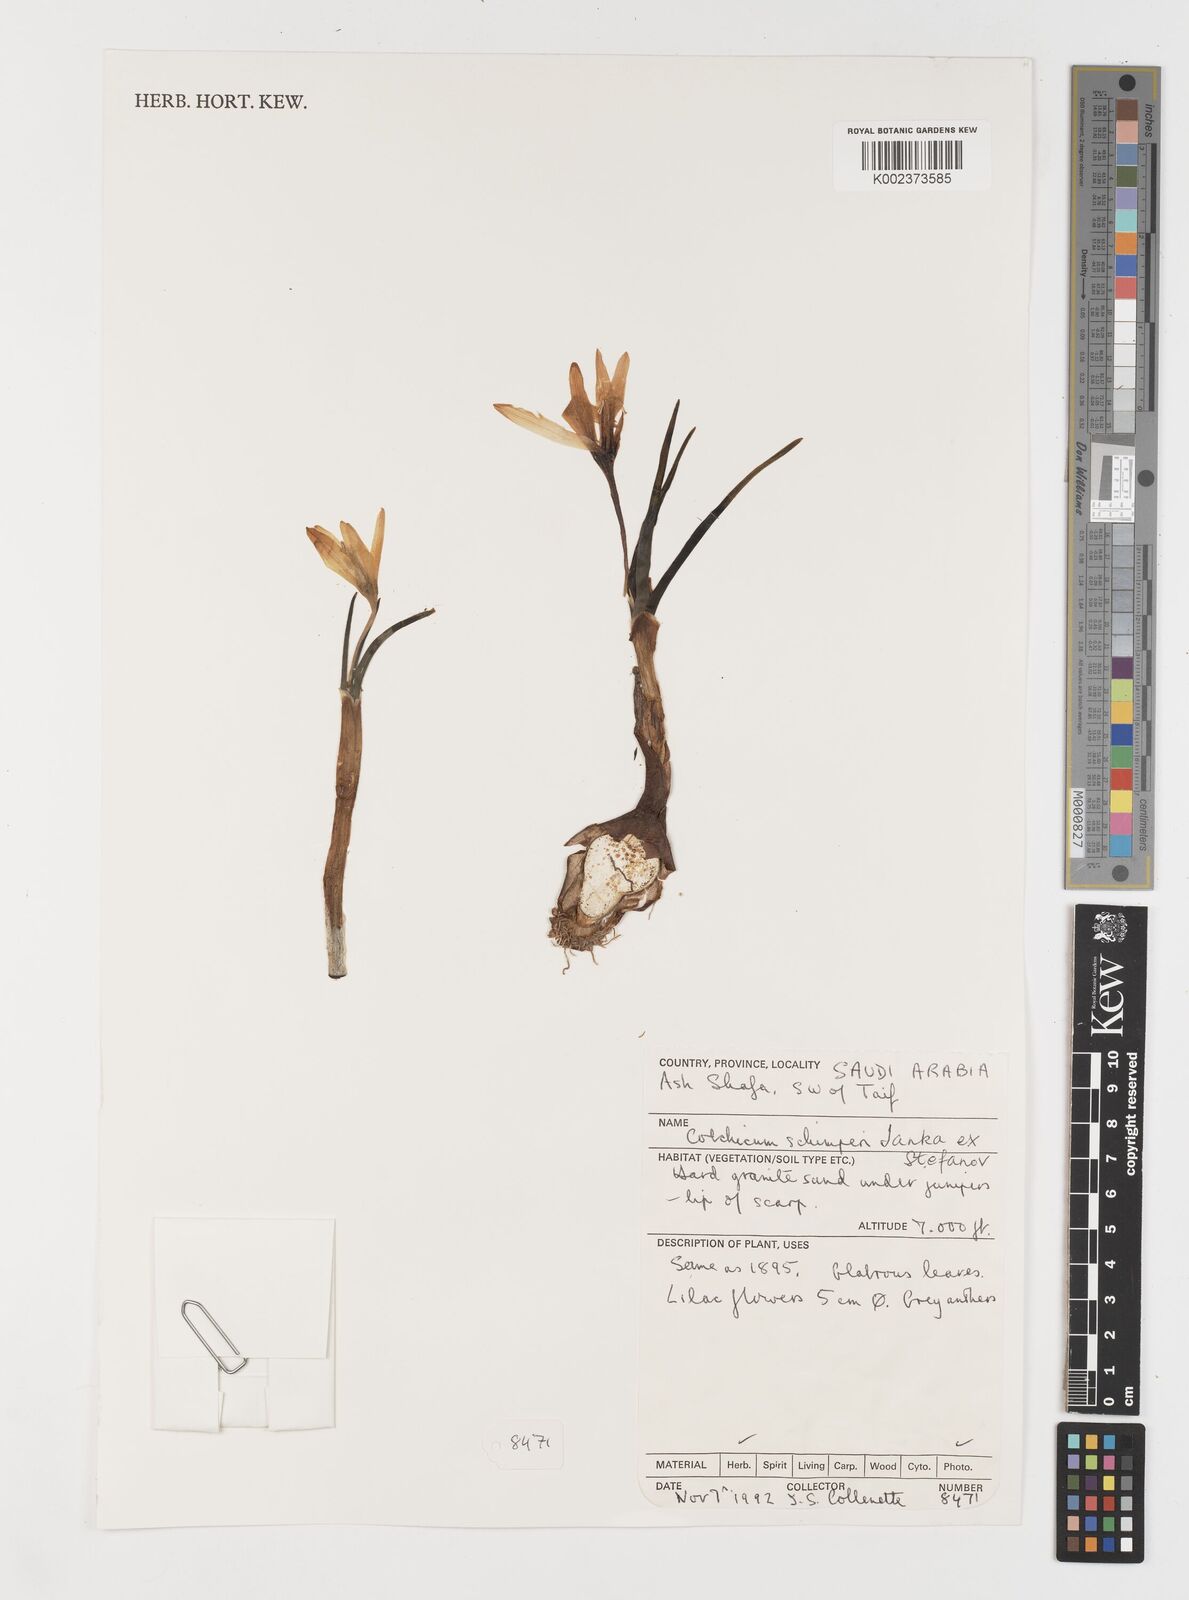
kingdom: Plantae
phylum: Tracheophyta
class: Liliopsida
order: Liliales
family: Colchicaceae
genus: Colchicum
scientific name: Colchicum schimperi
